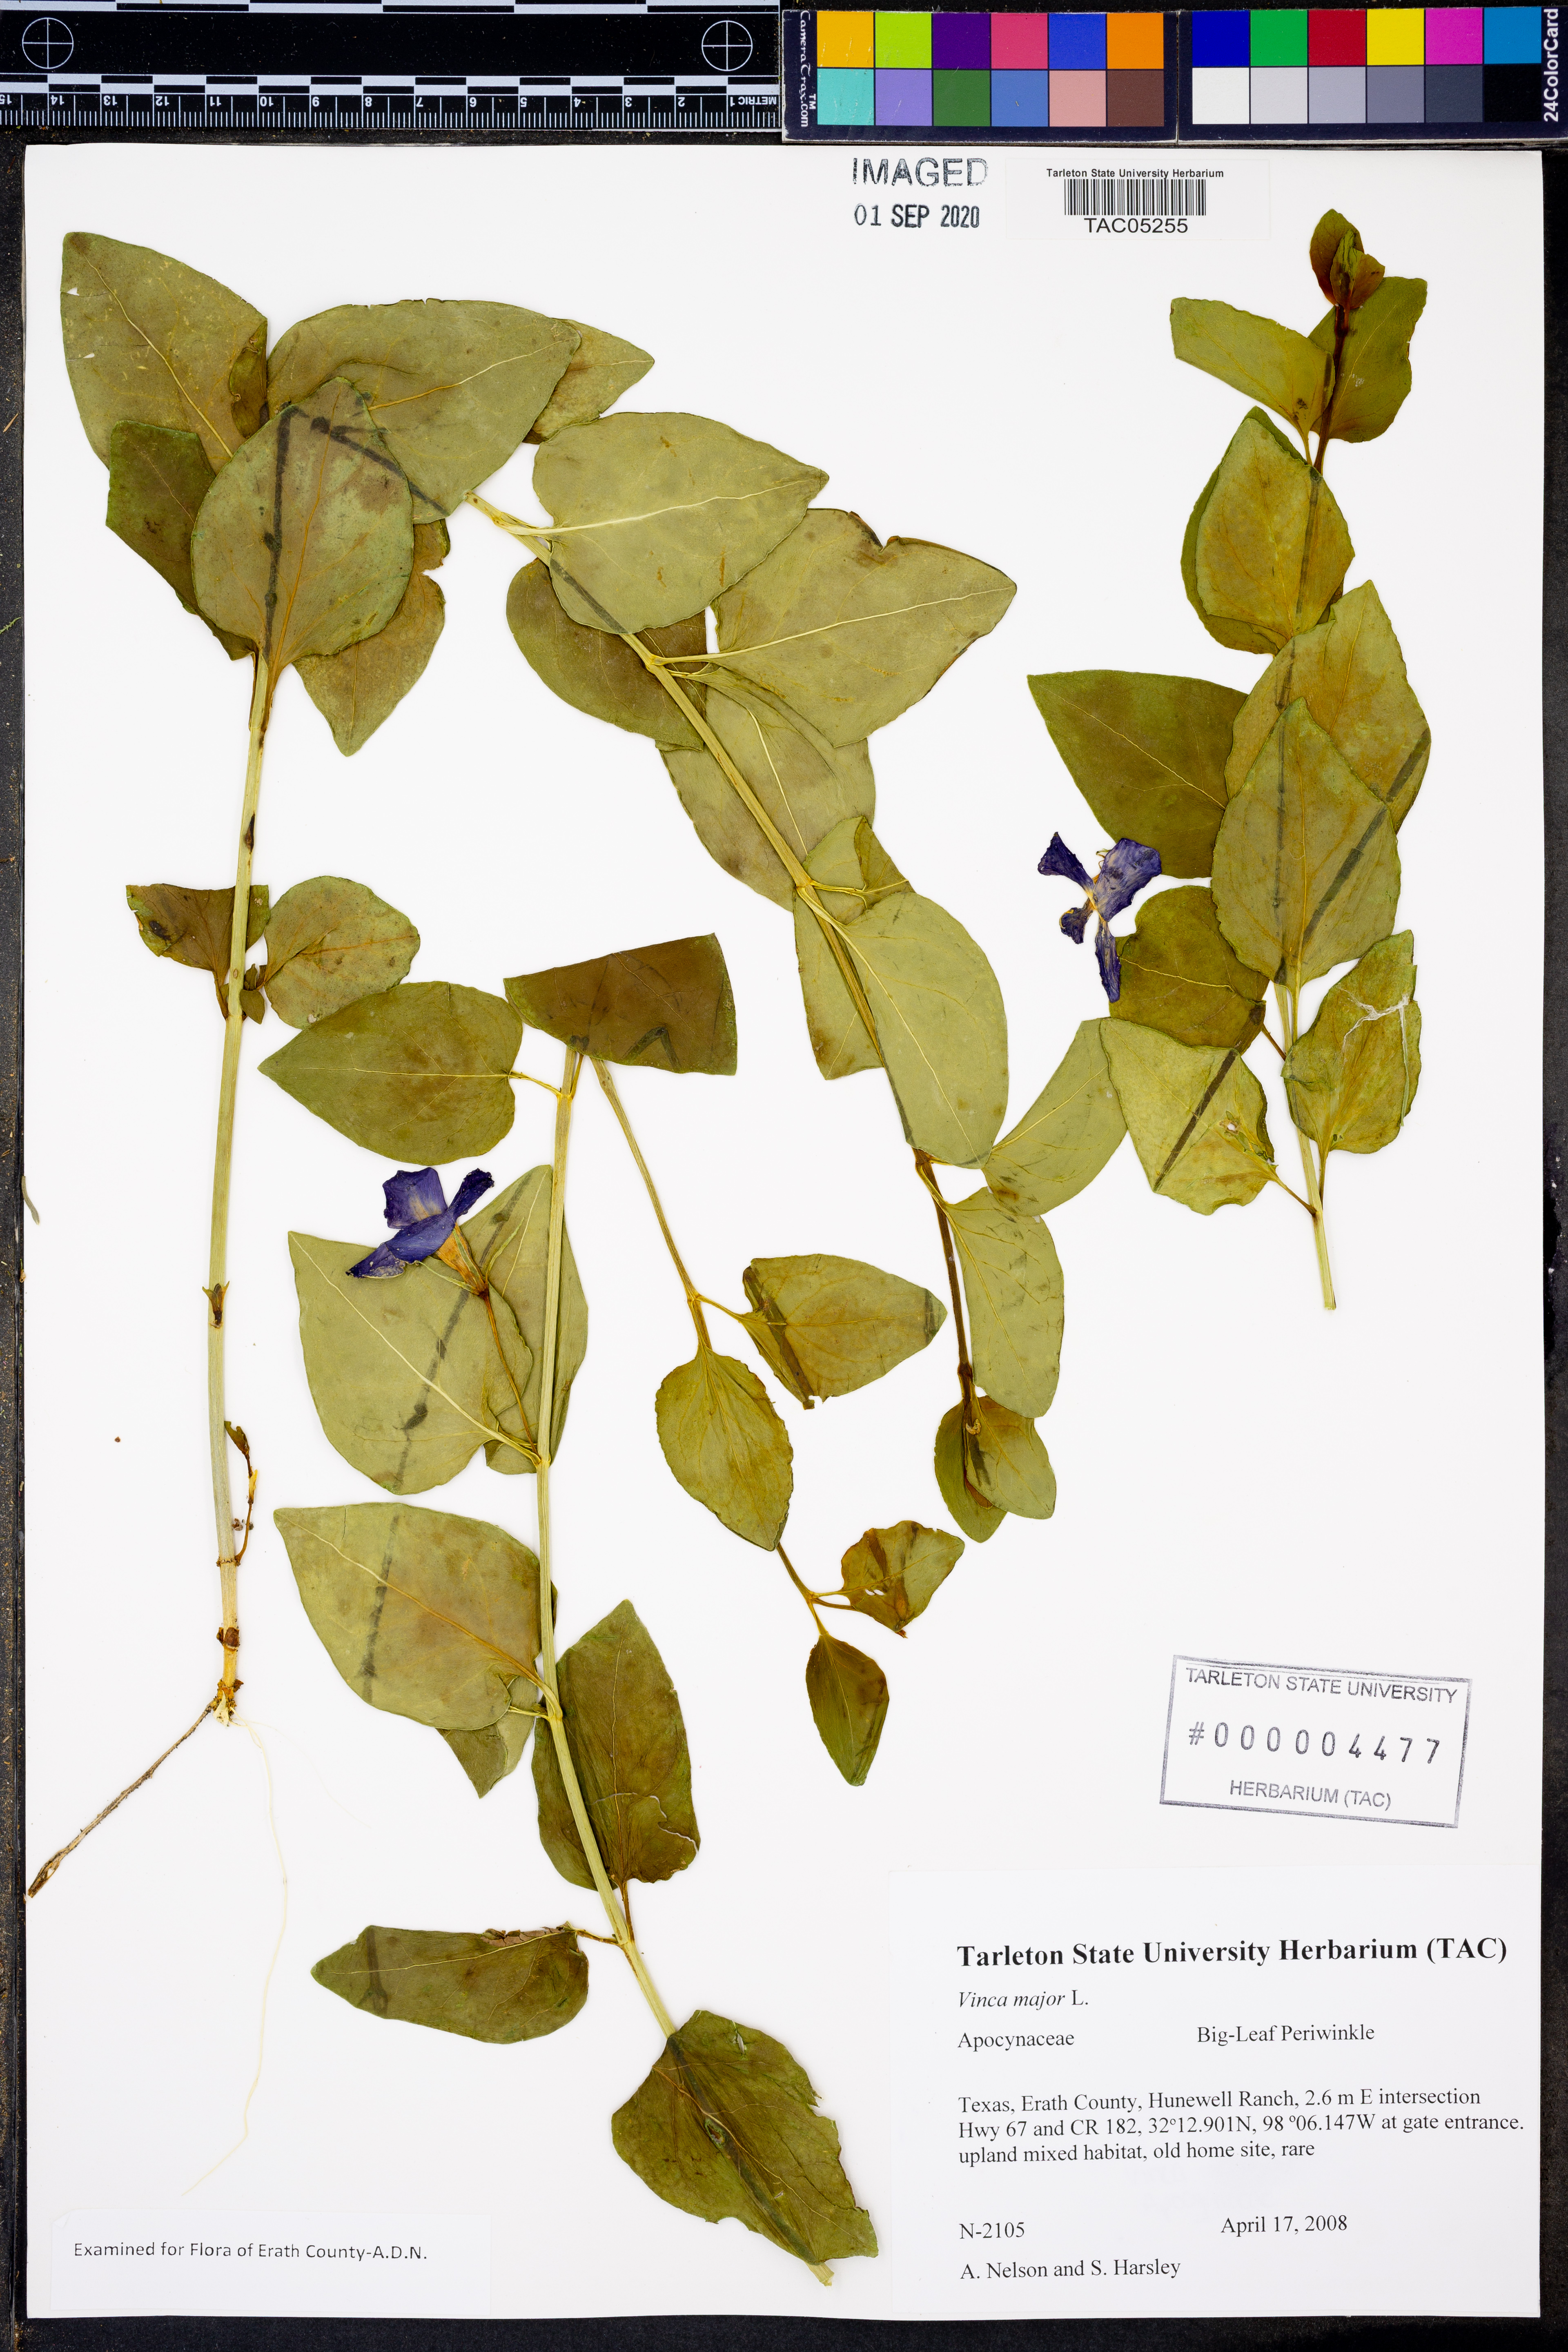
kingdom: Plantae
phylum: Tracheophyta
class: Magnoliopsida
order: Gentianales
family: Apocynaceae
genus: Vinca
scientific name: Vinca major
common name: Greater periwinkle
